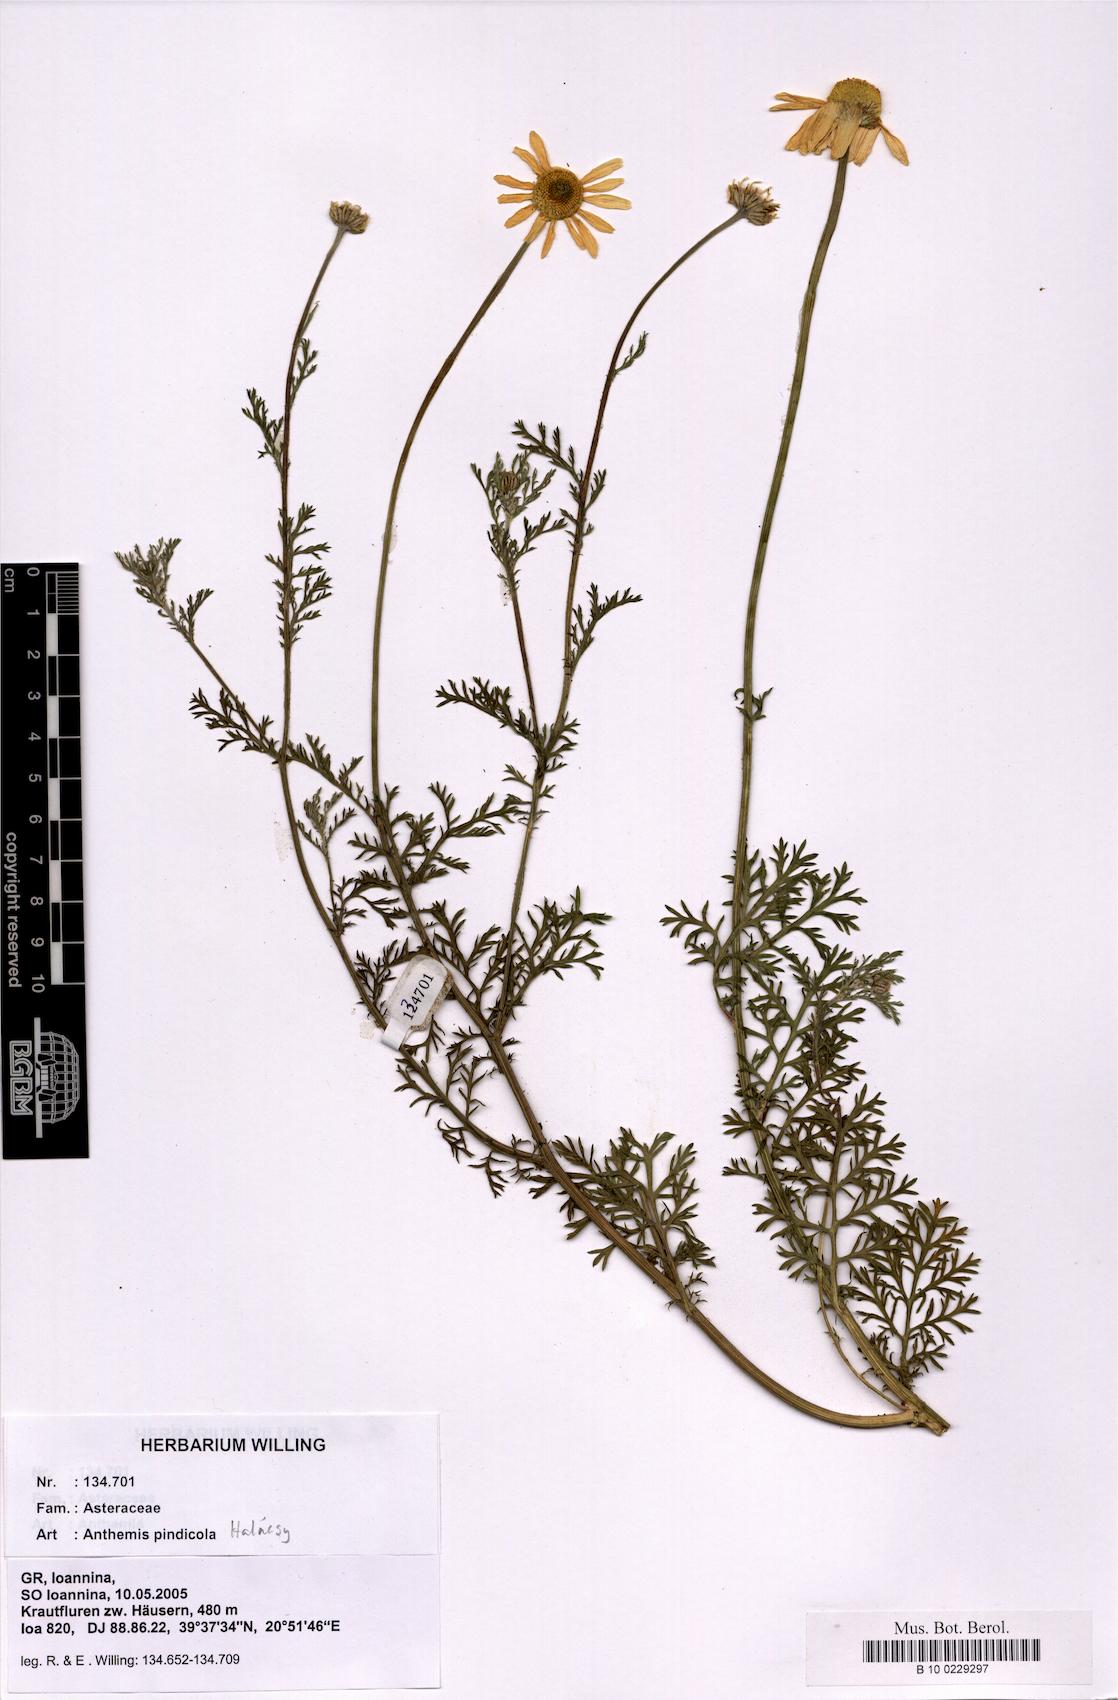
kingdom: Plantae
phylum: Tracheophyta
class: Magnoliopsida
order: Asterales
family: Asteraceae
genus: Anthemis
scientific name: Anthemis pindicola
